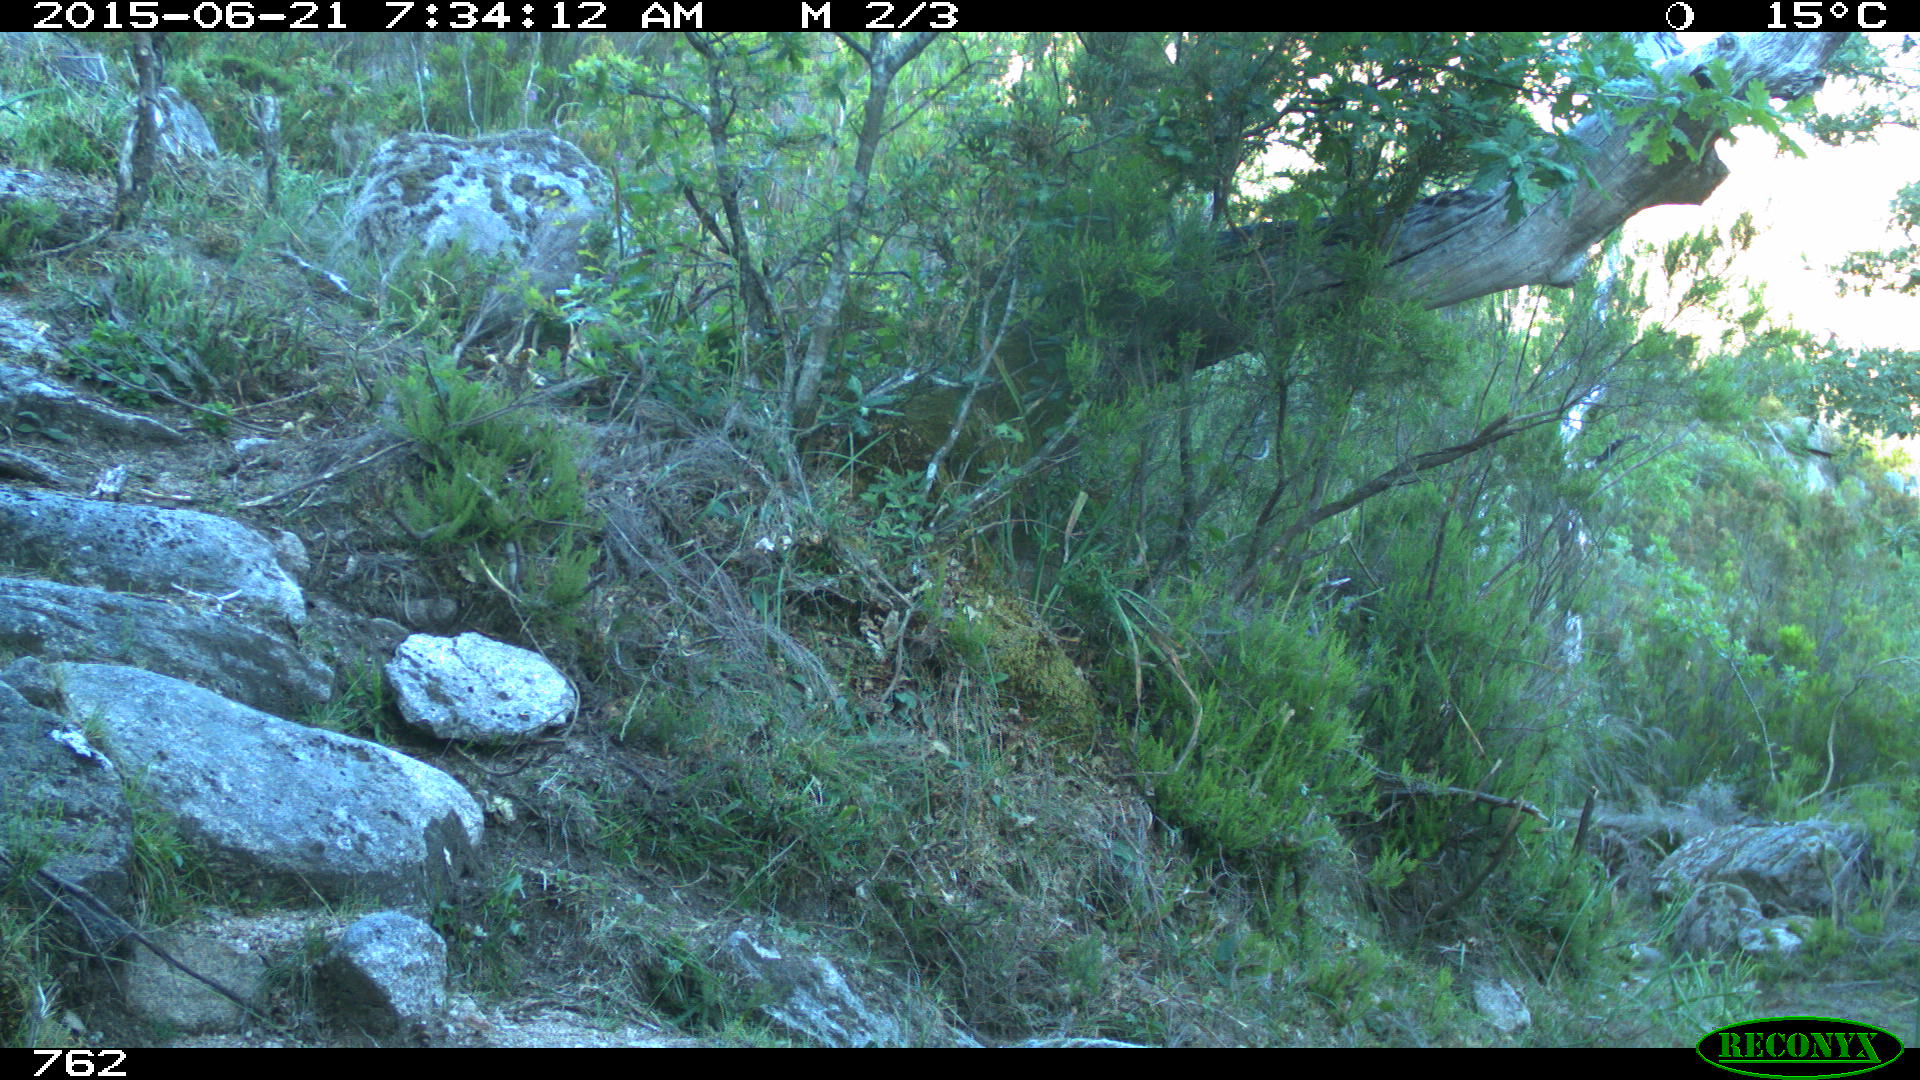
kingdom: Animalia
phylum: Chordata
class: Mammalia
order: Artiodactyla
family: Cervidae
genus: Capreolus
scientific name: Capreolus capreolus
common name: Western roe deer
